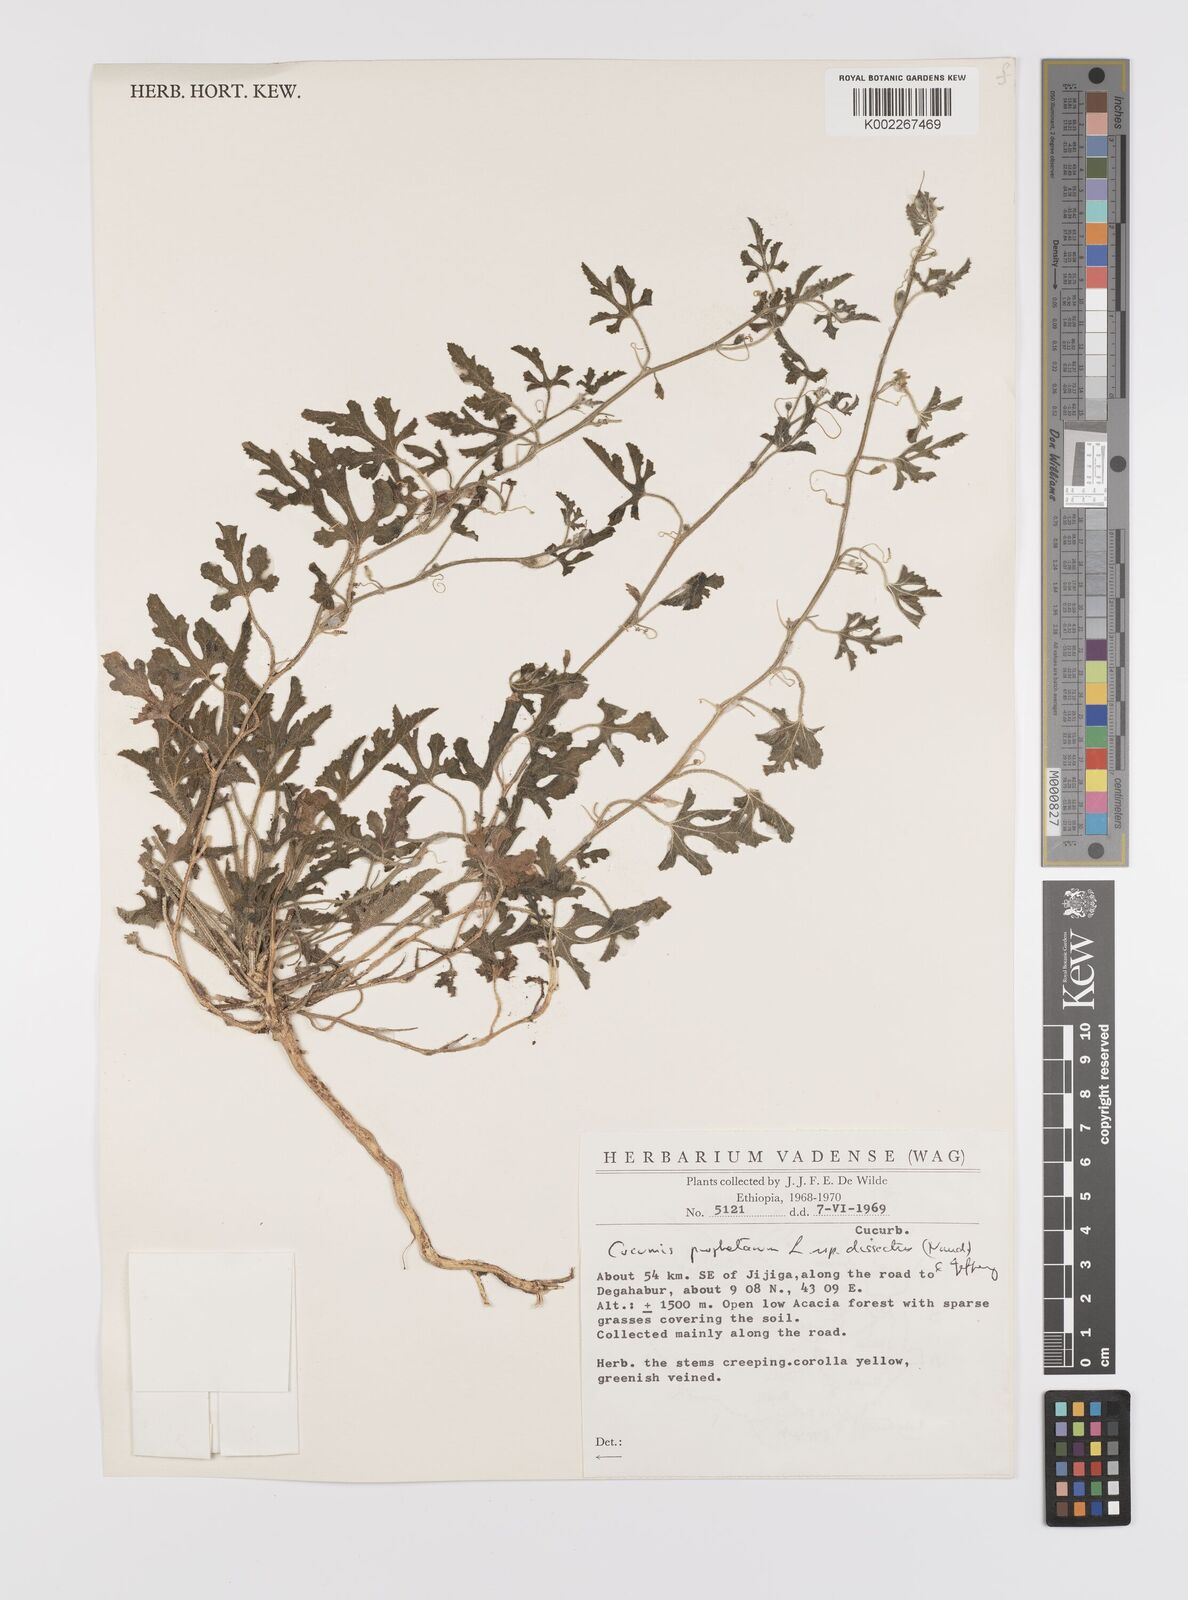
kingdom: Plantae
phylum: Tracheophyta
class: Magnoliopsida
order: Cucurbitales
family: Cucurbitaceae
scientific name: Cucurbitaceae
